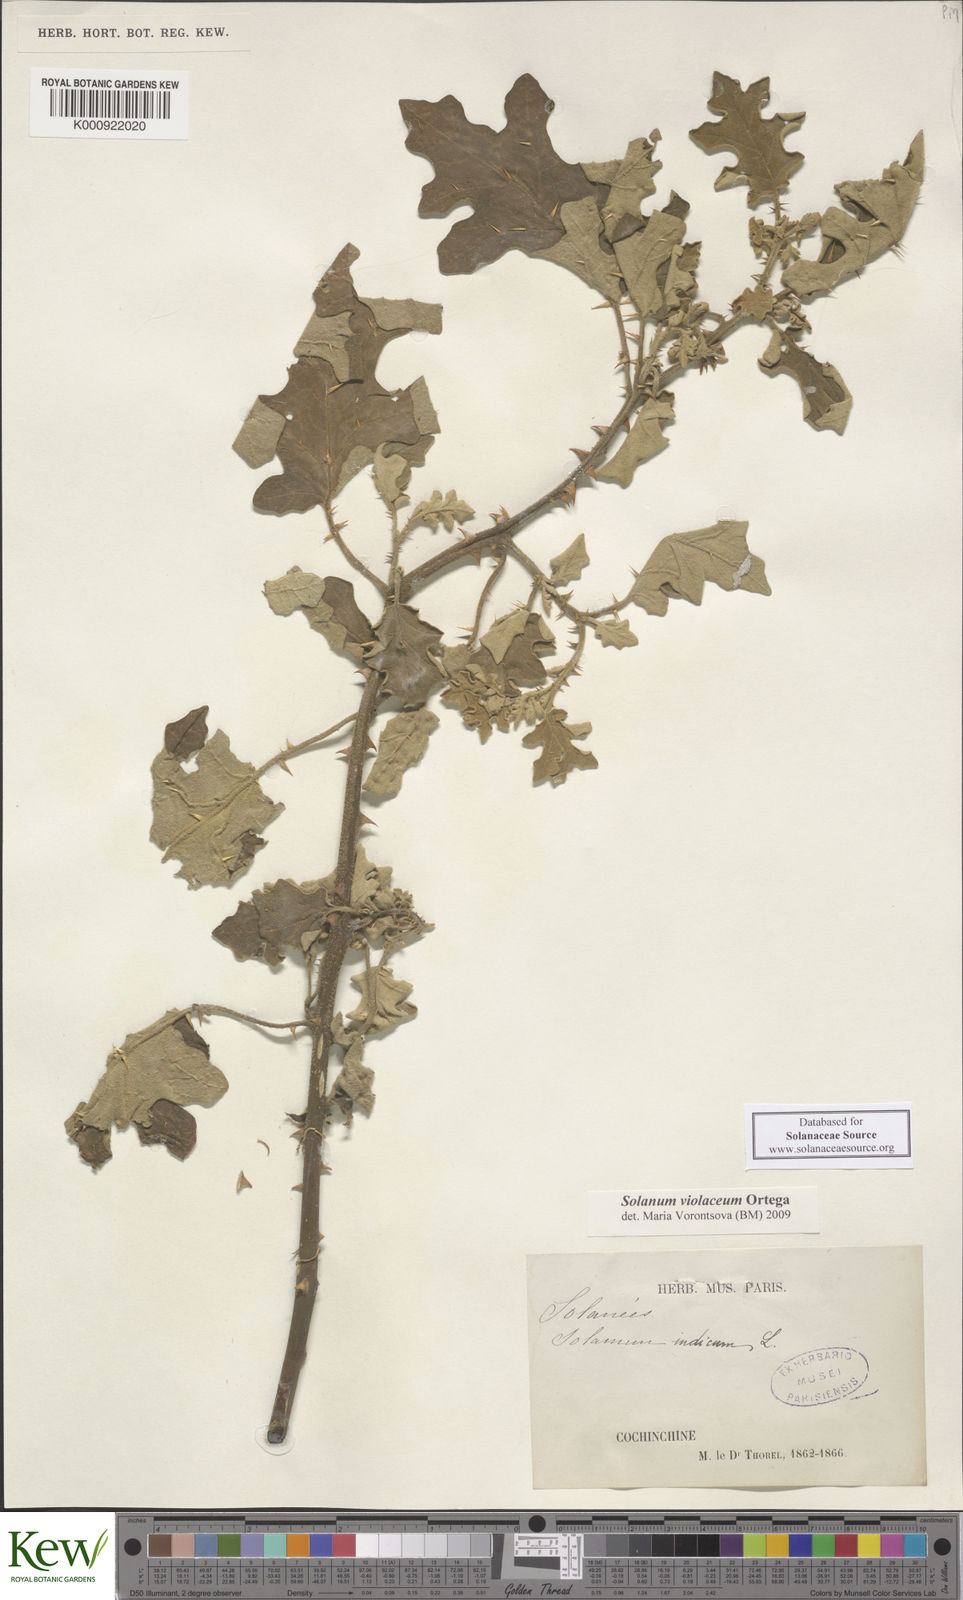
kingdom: Plantae
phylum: Tracheophyta
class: Magnoliopsida
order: Solanales
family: Solanaceae
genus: Solanum
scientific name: Solanum violaceum
